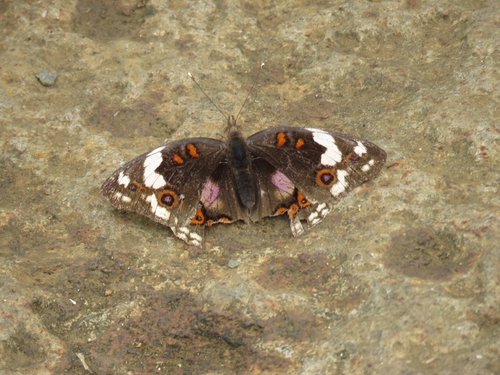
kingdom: Animalia
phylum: Arthropoda
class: Insecta
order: Lepidoptera
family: Nymphalidae
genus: Junonia
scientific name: Junonia oenone
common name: Dark blue pansy
